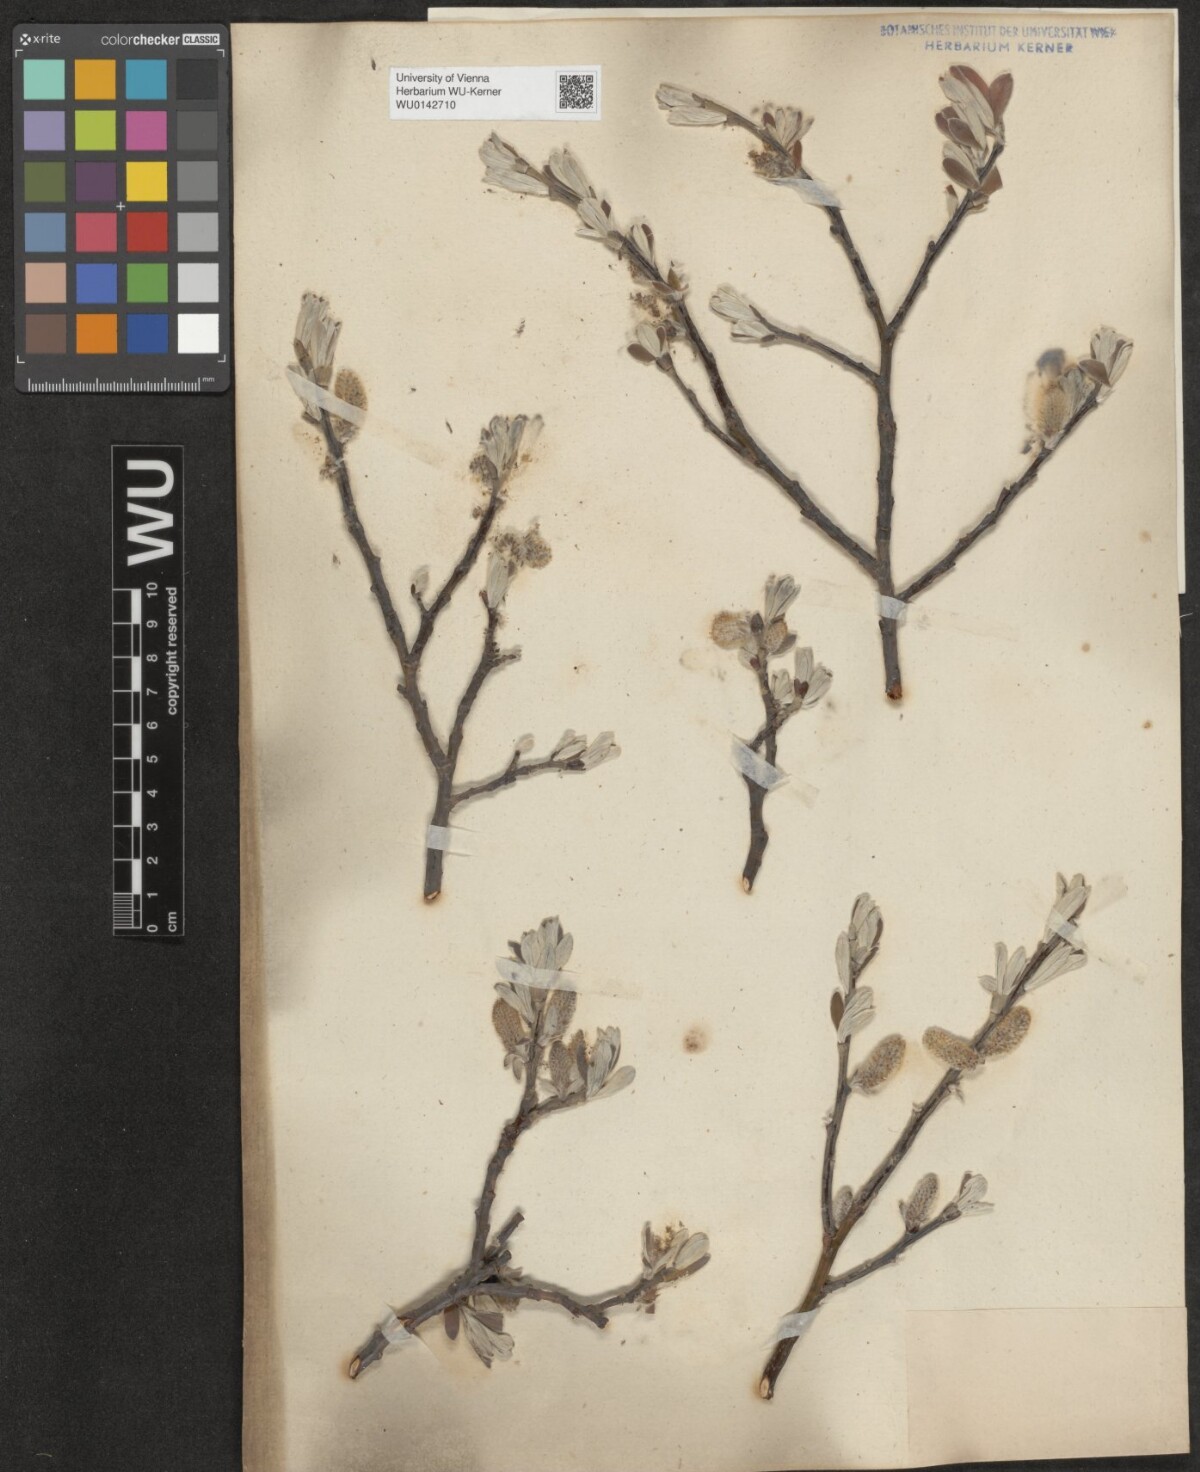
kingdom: Plantae
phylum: Tracheophyta
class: Magnoliopsida
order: Malpighiales
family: Salicaceae
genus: Salix
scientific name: Salix helvetica
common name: Swiss willow
